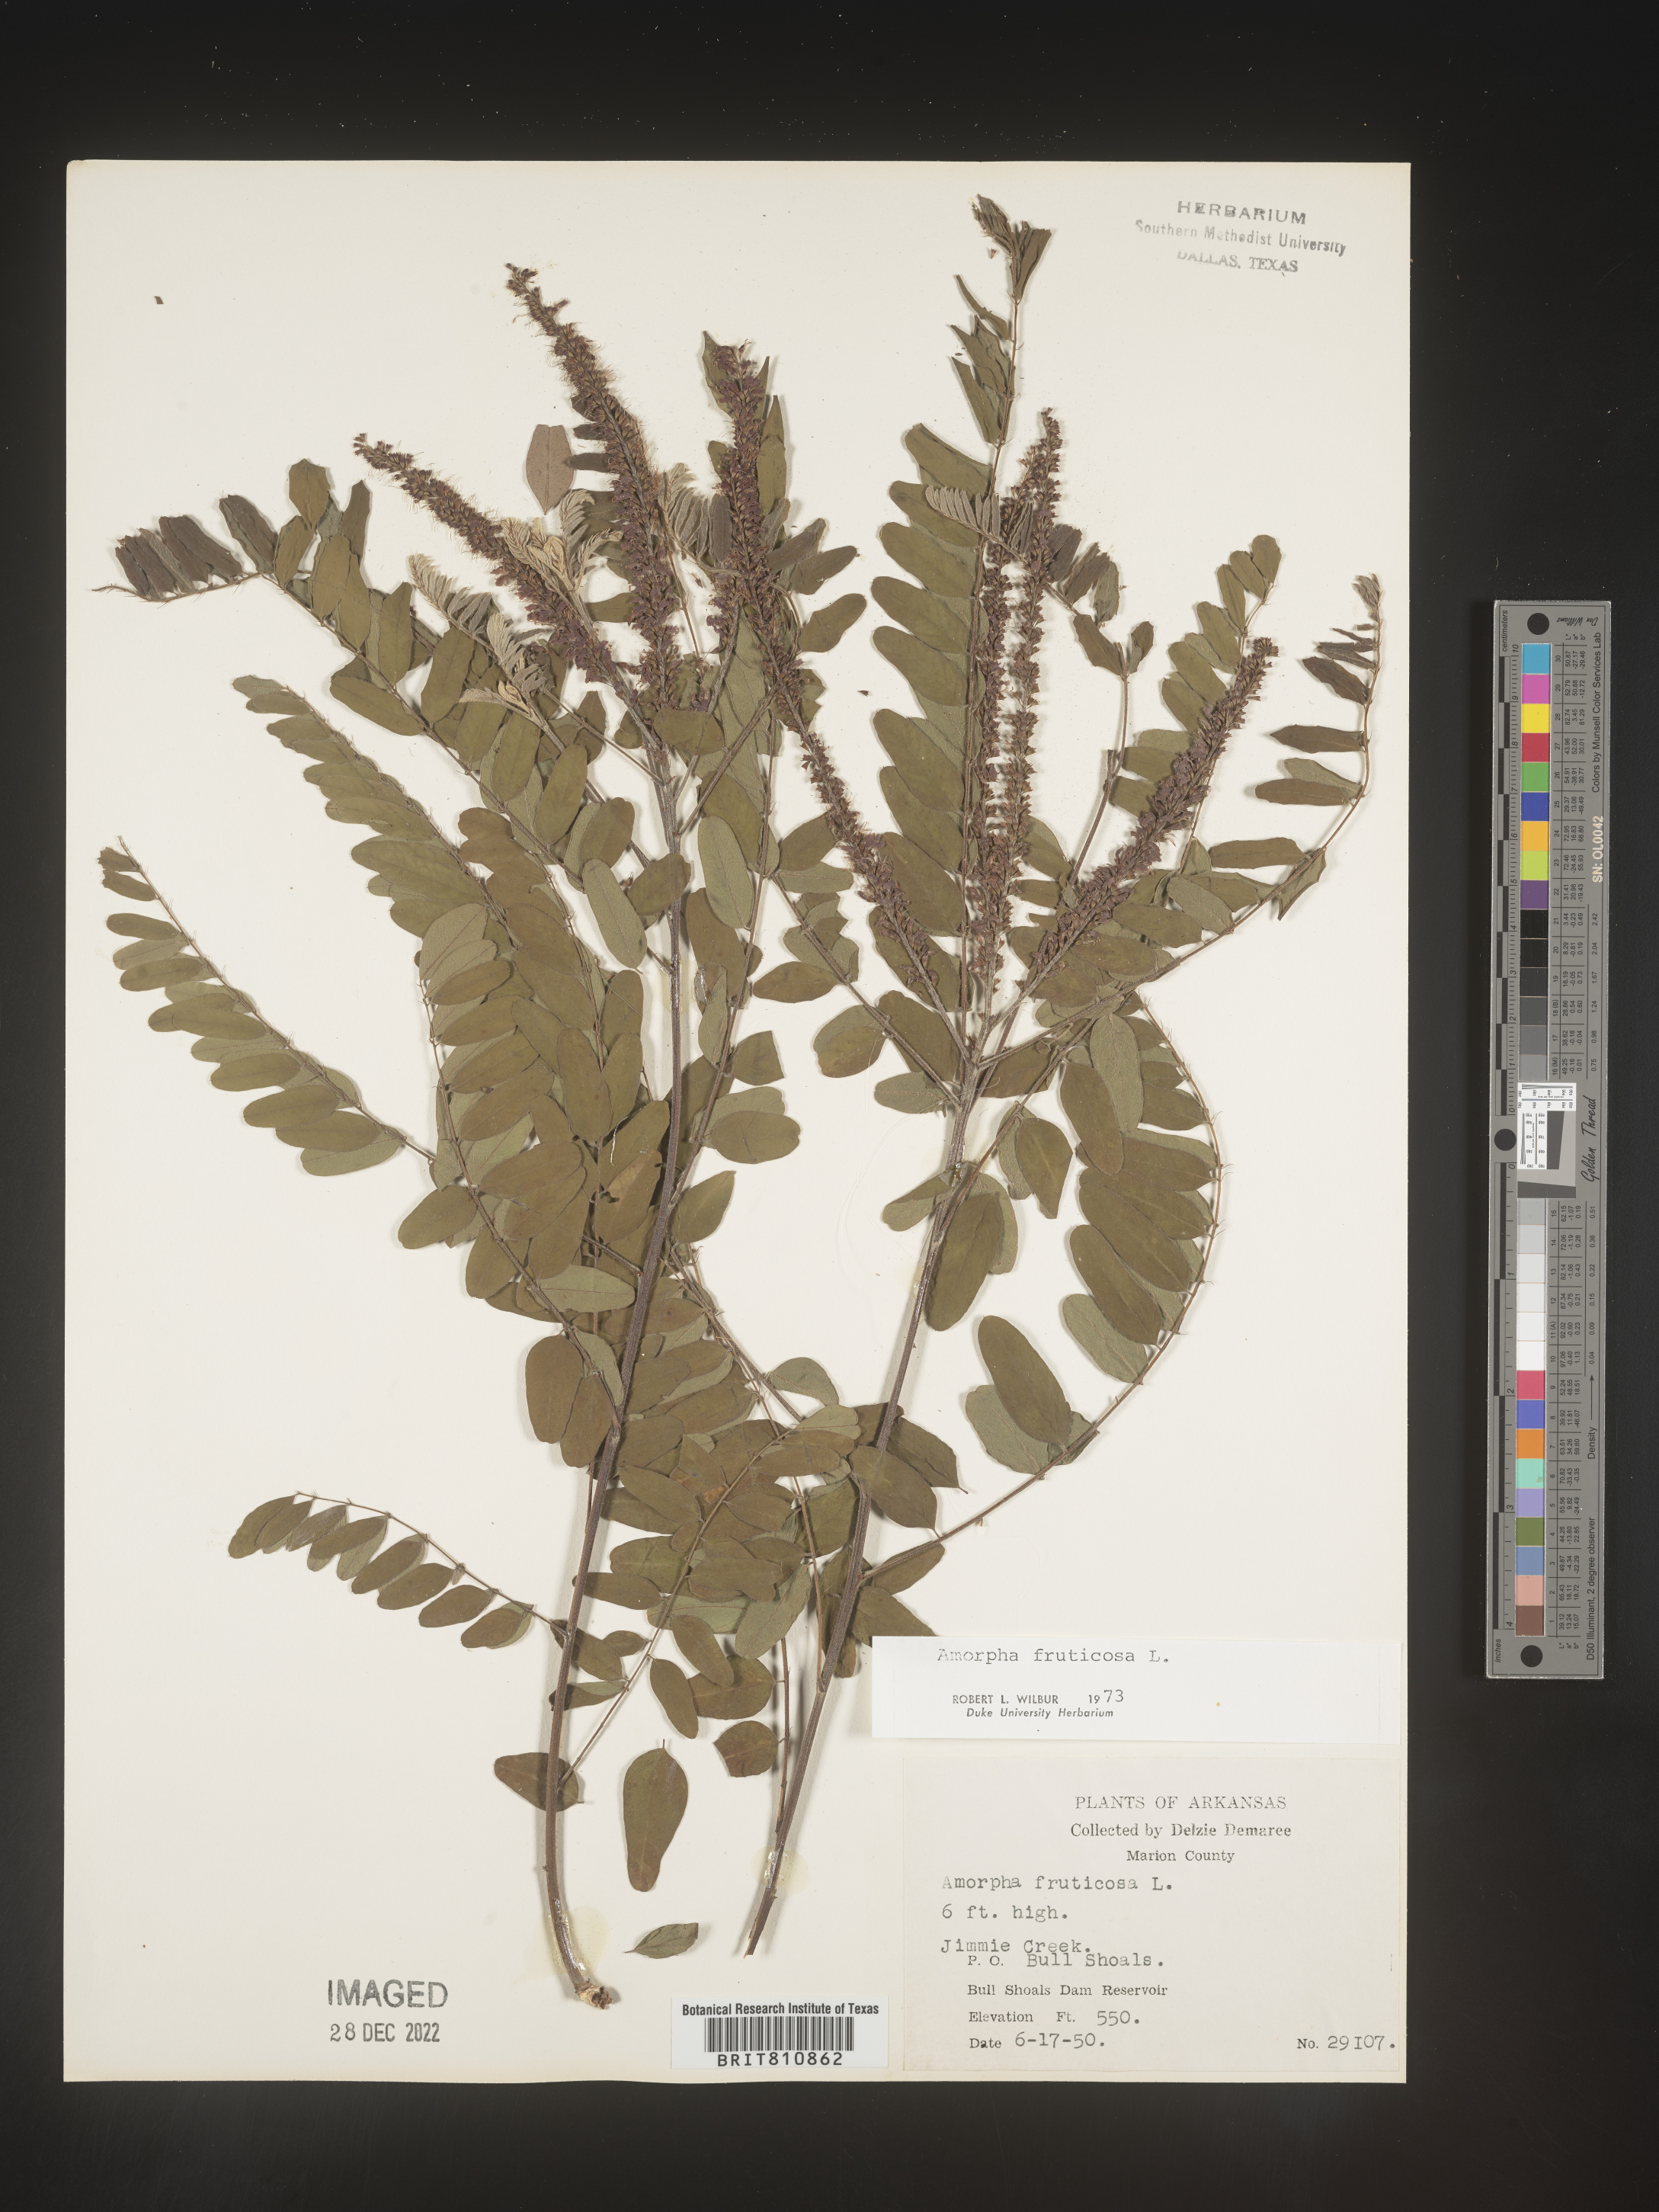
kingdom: Plantae
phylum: Tracheophyta
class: Magnoliopsida
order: Fabales
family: Fabaceae
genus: Amorpha
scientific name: Amorpha fruticosa
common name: False indigo
